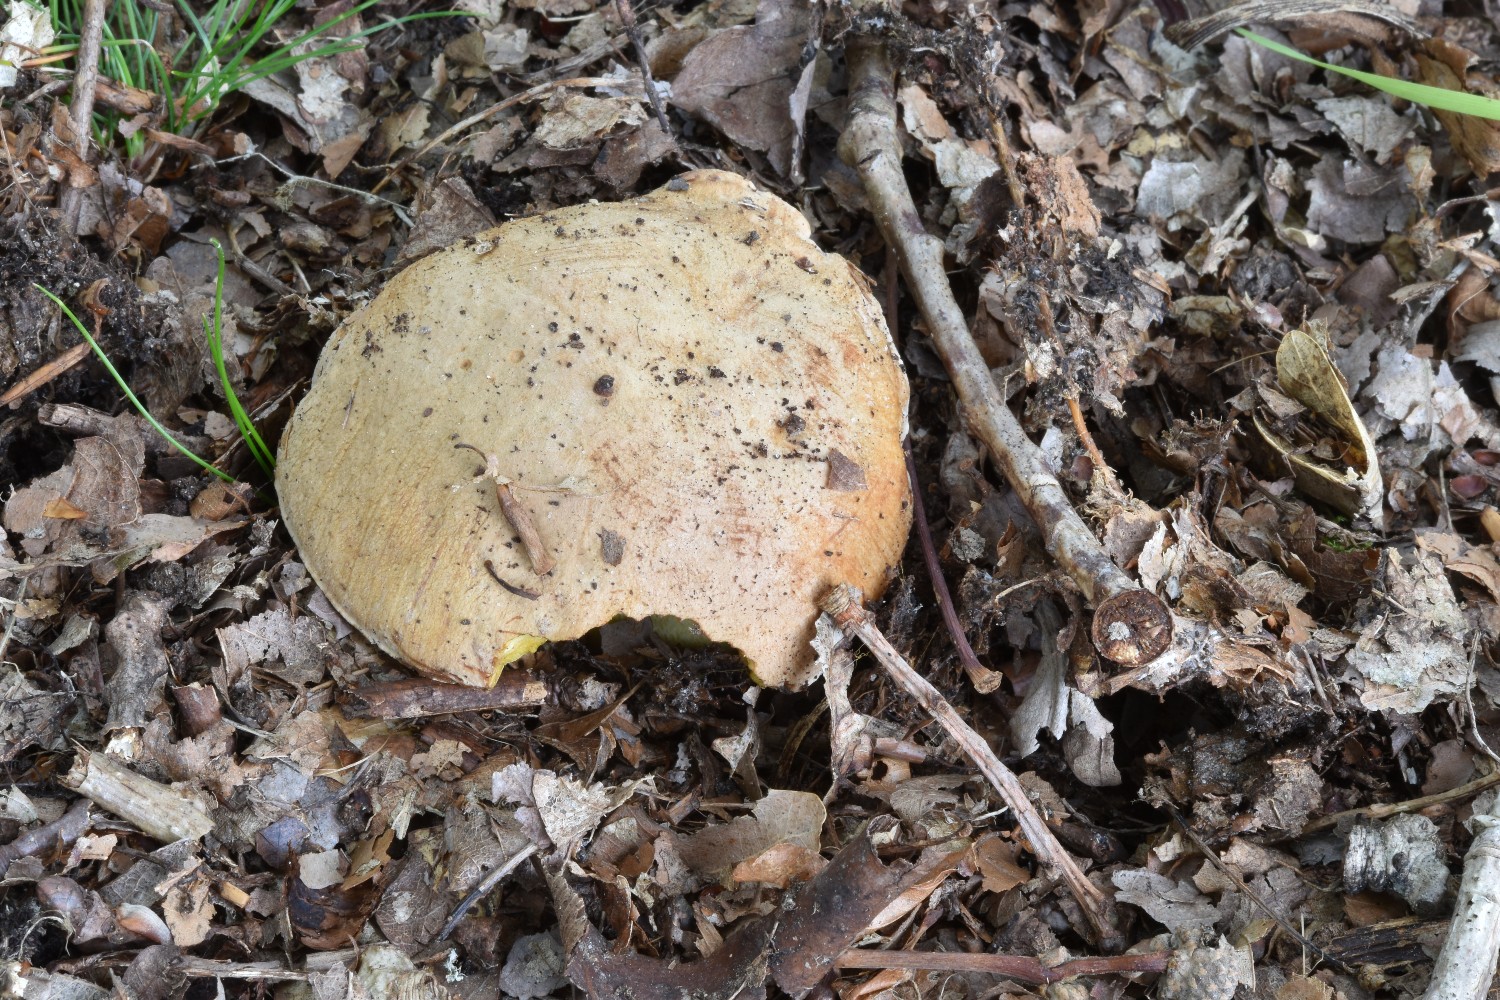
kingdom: Fungi
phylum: Basidiomycota
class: Agaricomycetes
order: Boletales
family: Boletaceae
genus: Butyriboletus
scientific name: Butyriboletus appendiculatus
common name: tenstokket rørhat
